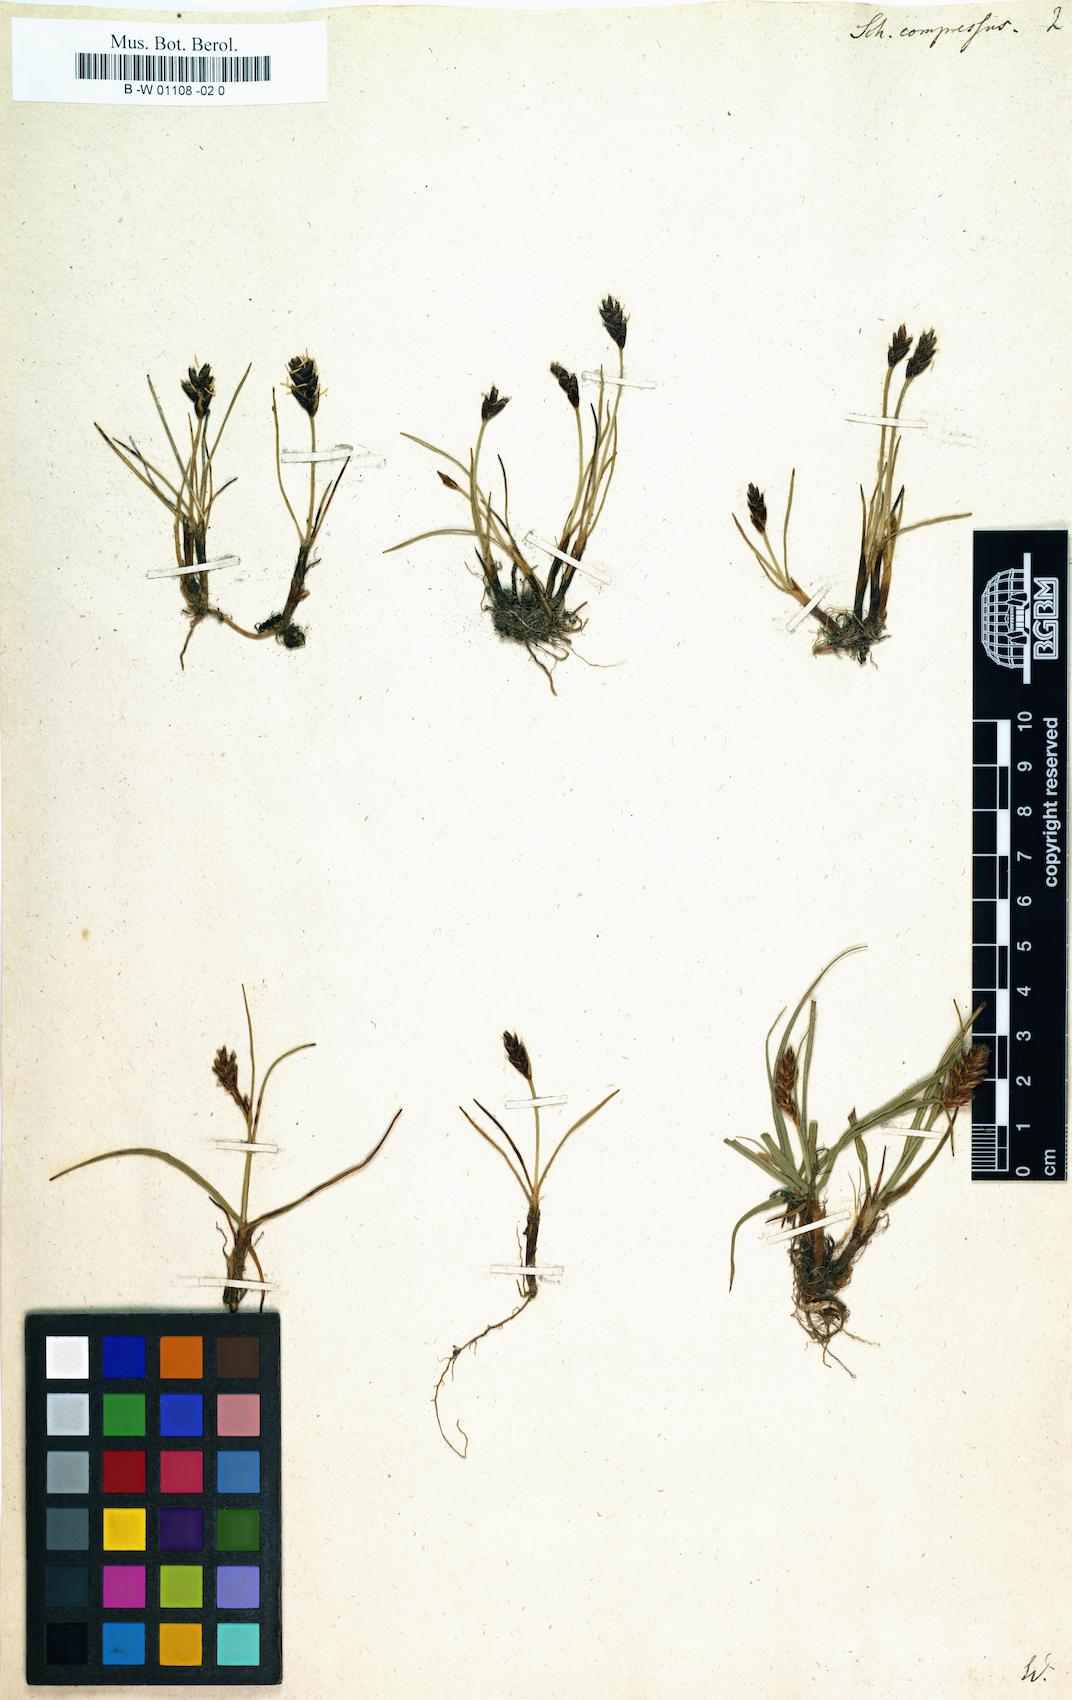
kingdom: Plantae
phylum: Tracheophyta
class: Liliopsida
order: Poales
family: Cyperaceae
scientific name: Cyperaceae
